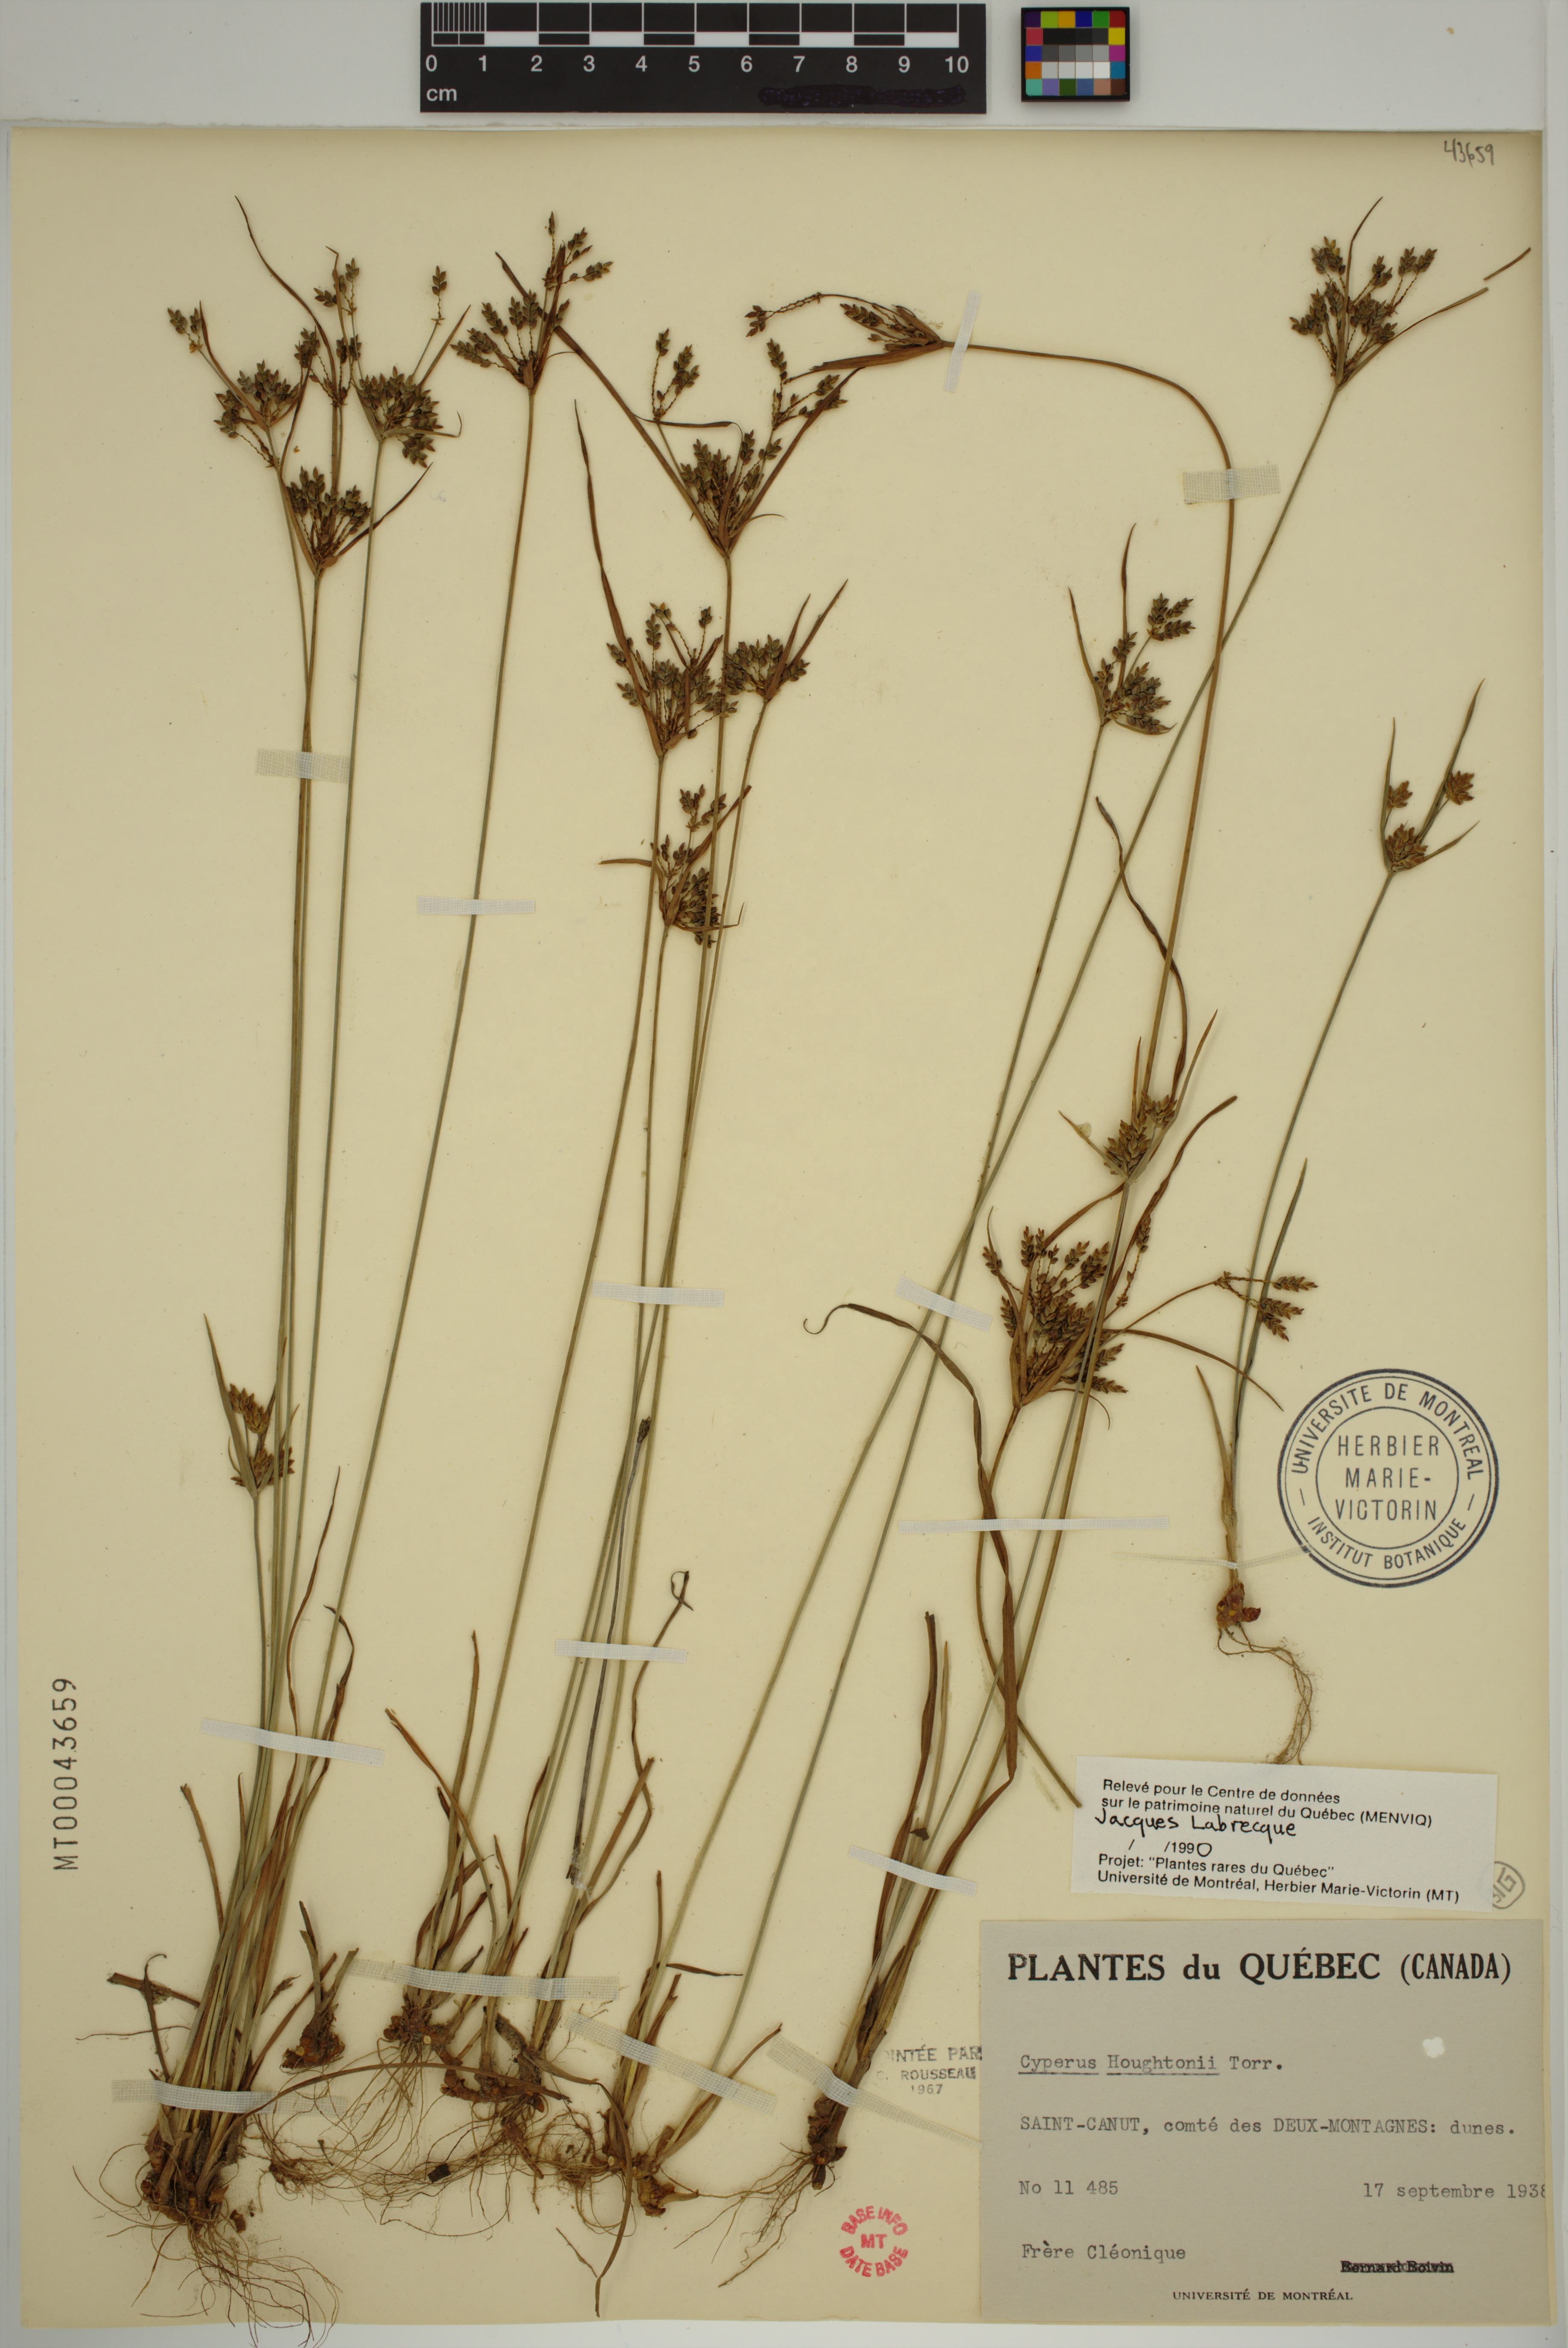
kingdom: Plantae
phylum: Tracheophyta
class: Liliopsida
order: Poales
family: Cyperaceae
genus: Cyperus
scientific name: Cyperus houghtonii
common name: Houghton's cyperus
